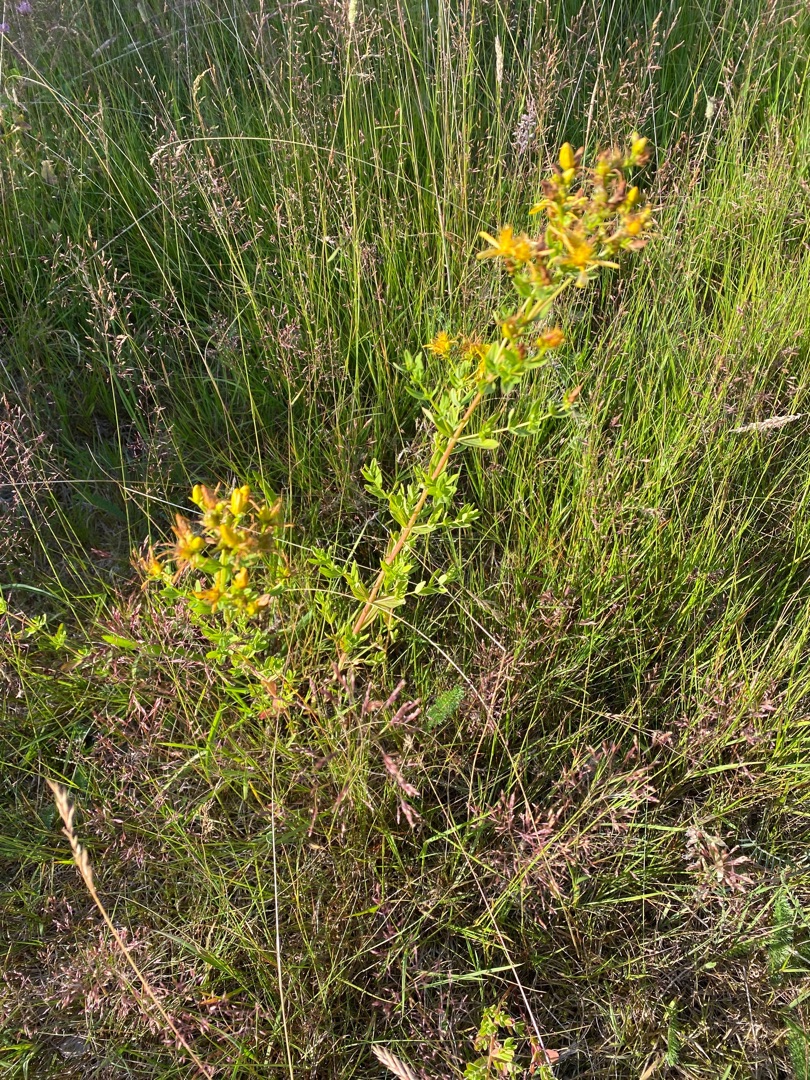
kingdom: Plantae
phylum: Tracheophyta
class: Magnoliopsida
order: Malpighiales
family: Hypericaceae
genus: Hypericum
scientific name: Hypericum perforatum
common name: Prikbladet perikon
